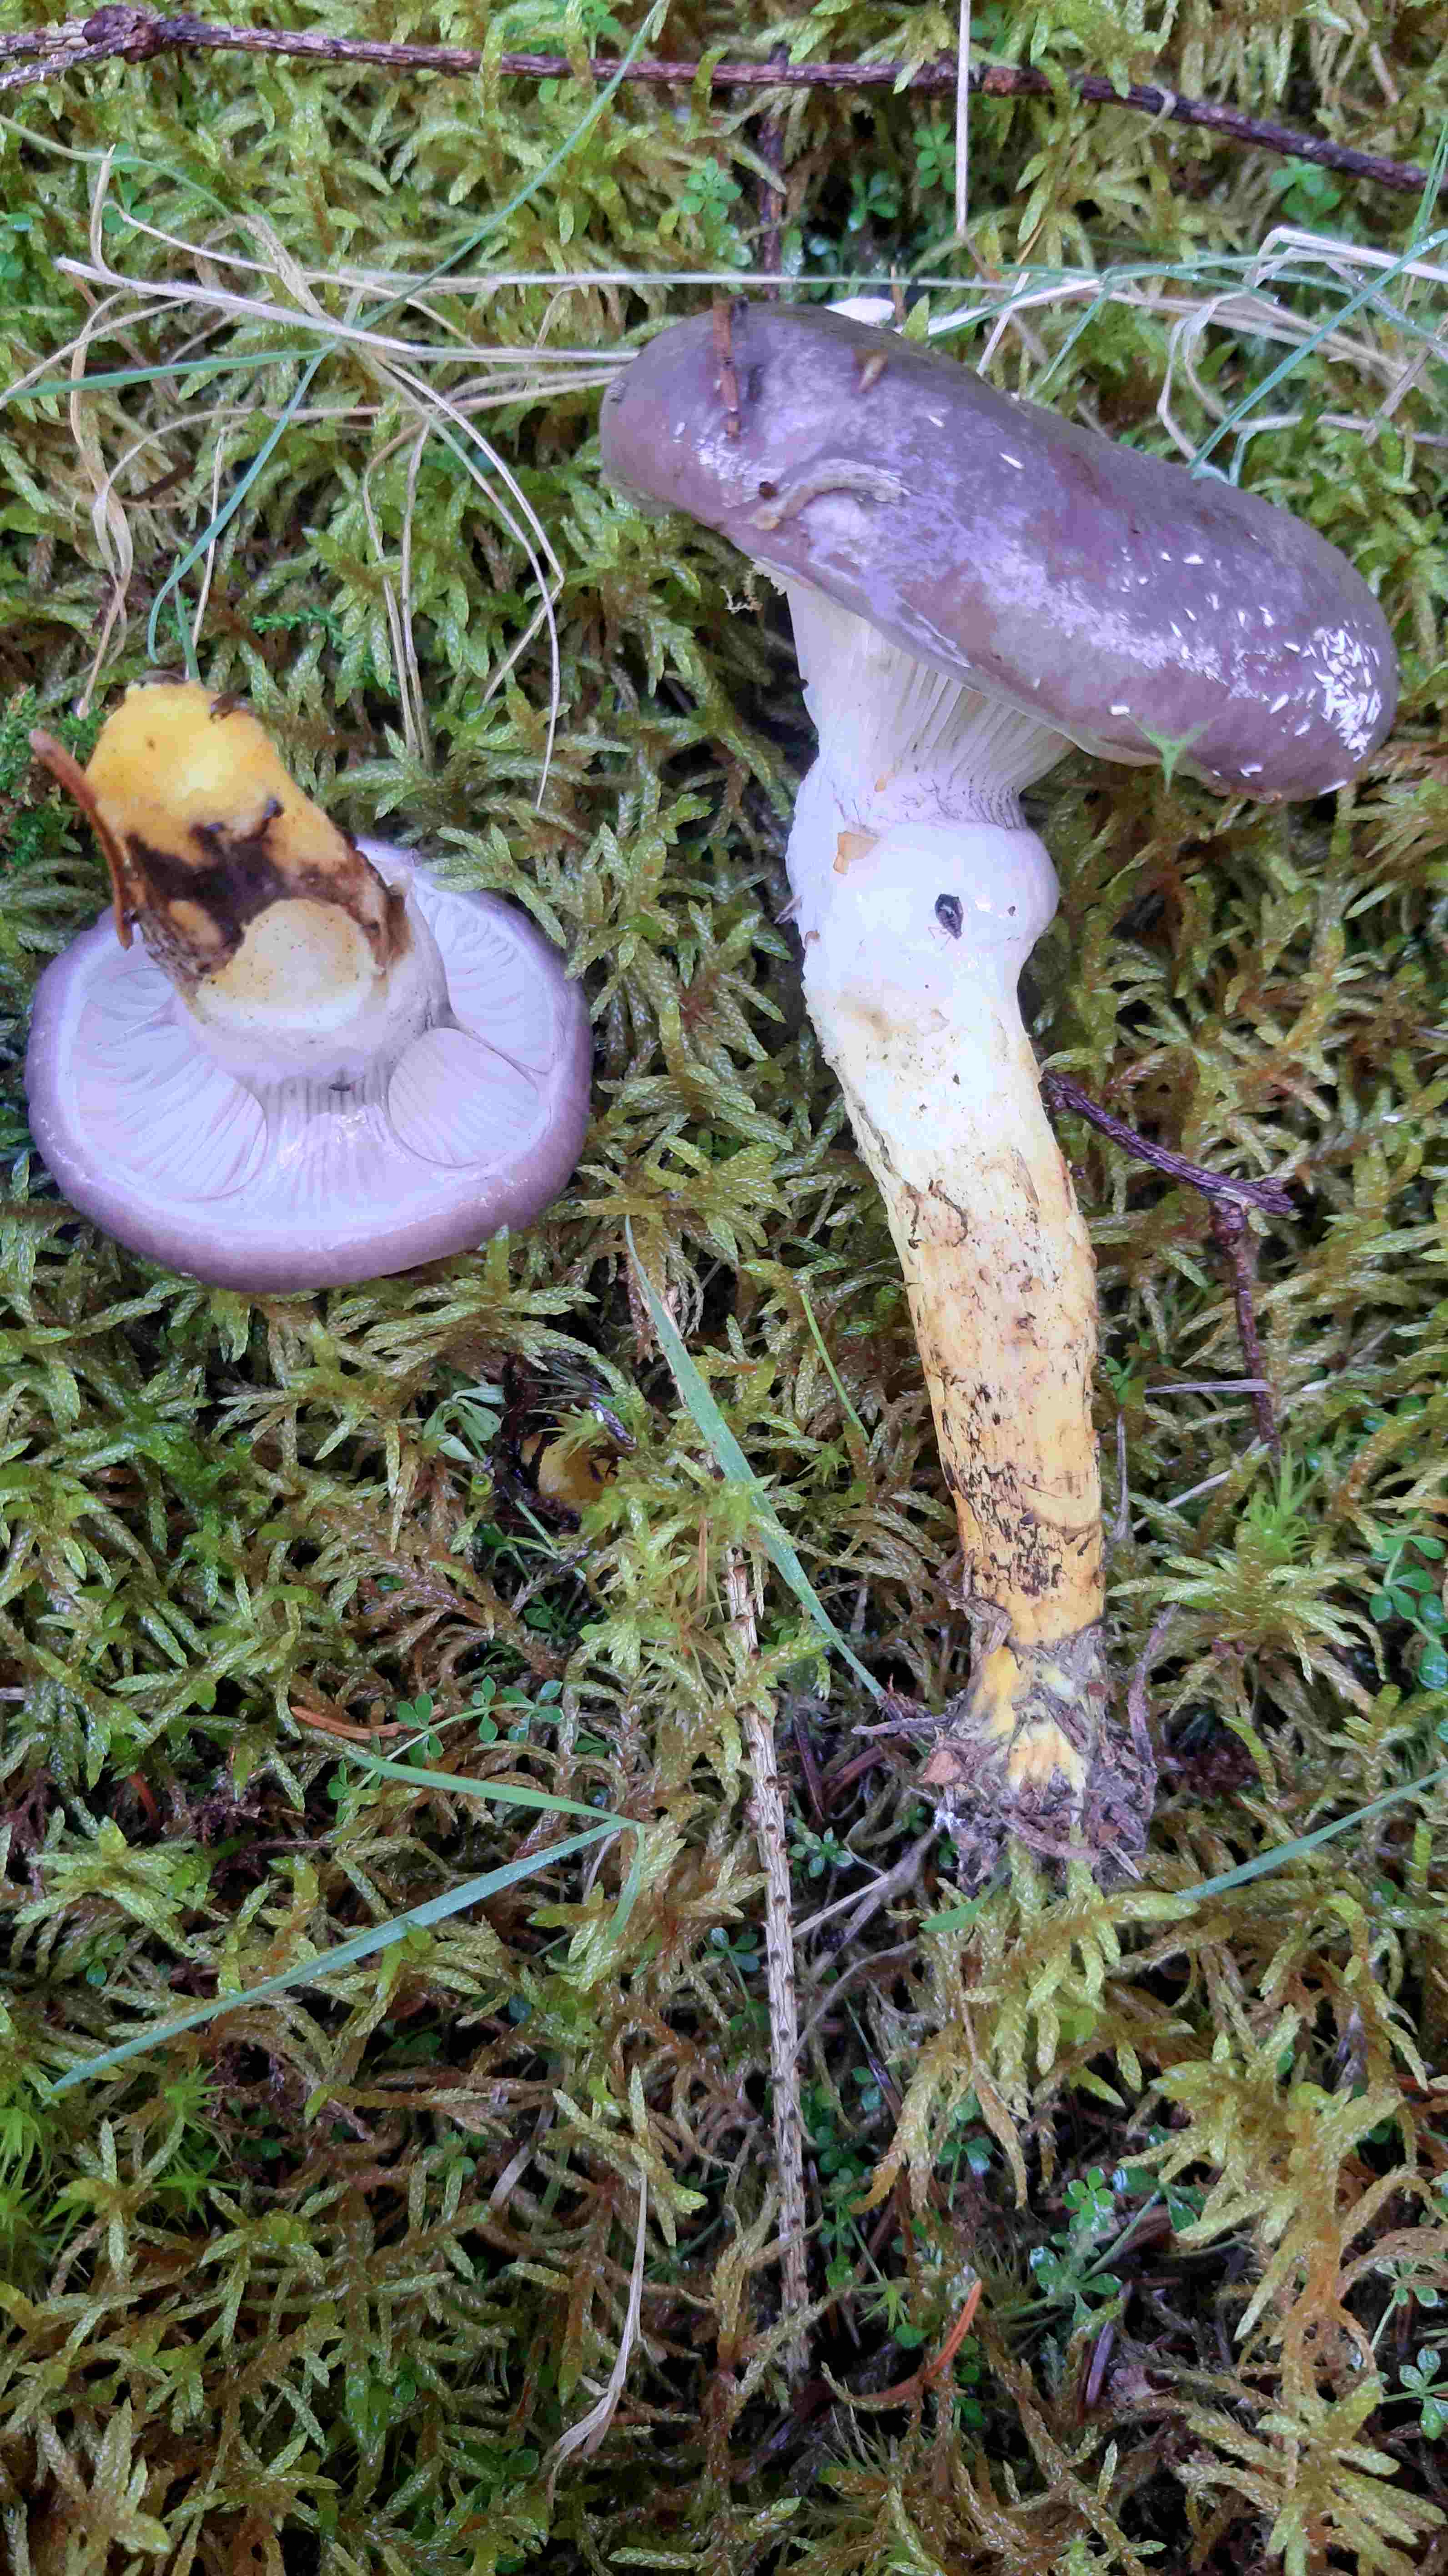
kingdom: Fungi
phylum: Basidiomycota
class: Agaricomycetes
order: Boletales
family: Gomphidiaceae
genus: Gomphidius
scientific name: Gomphidius glutinosus
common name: grå slimslør
